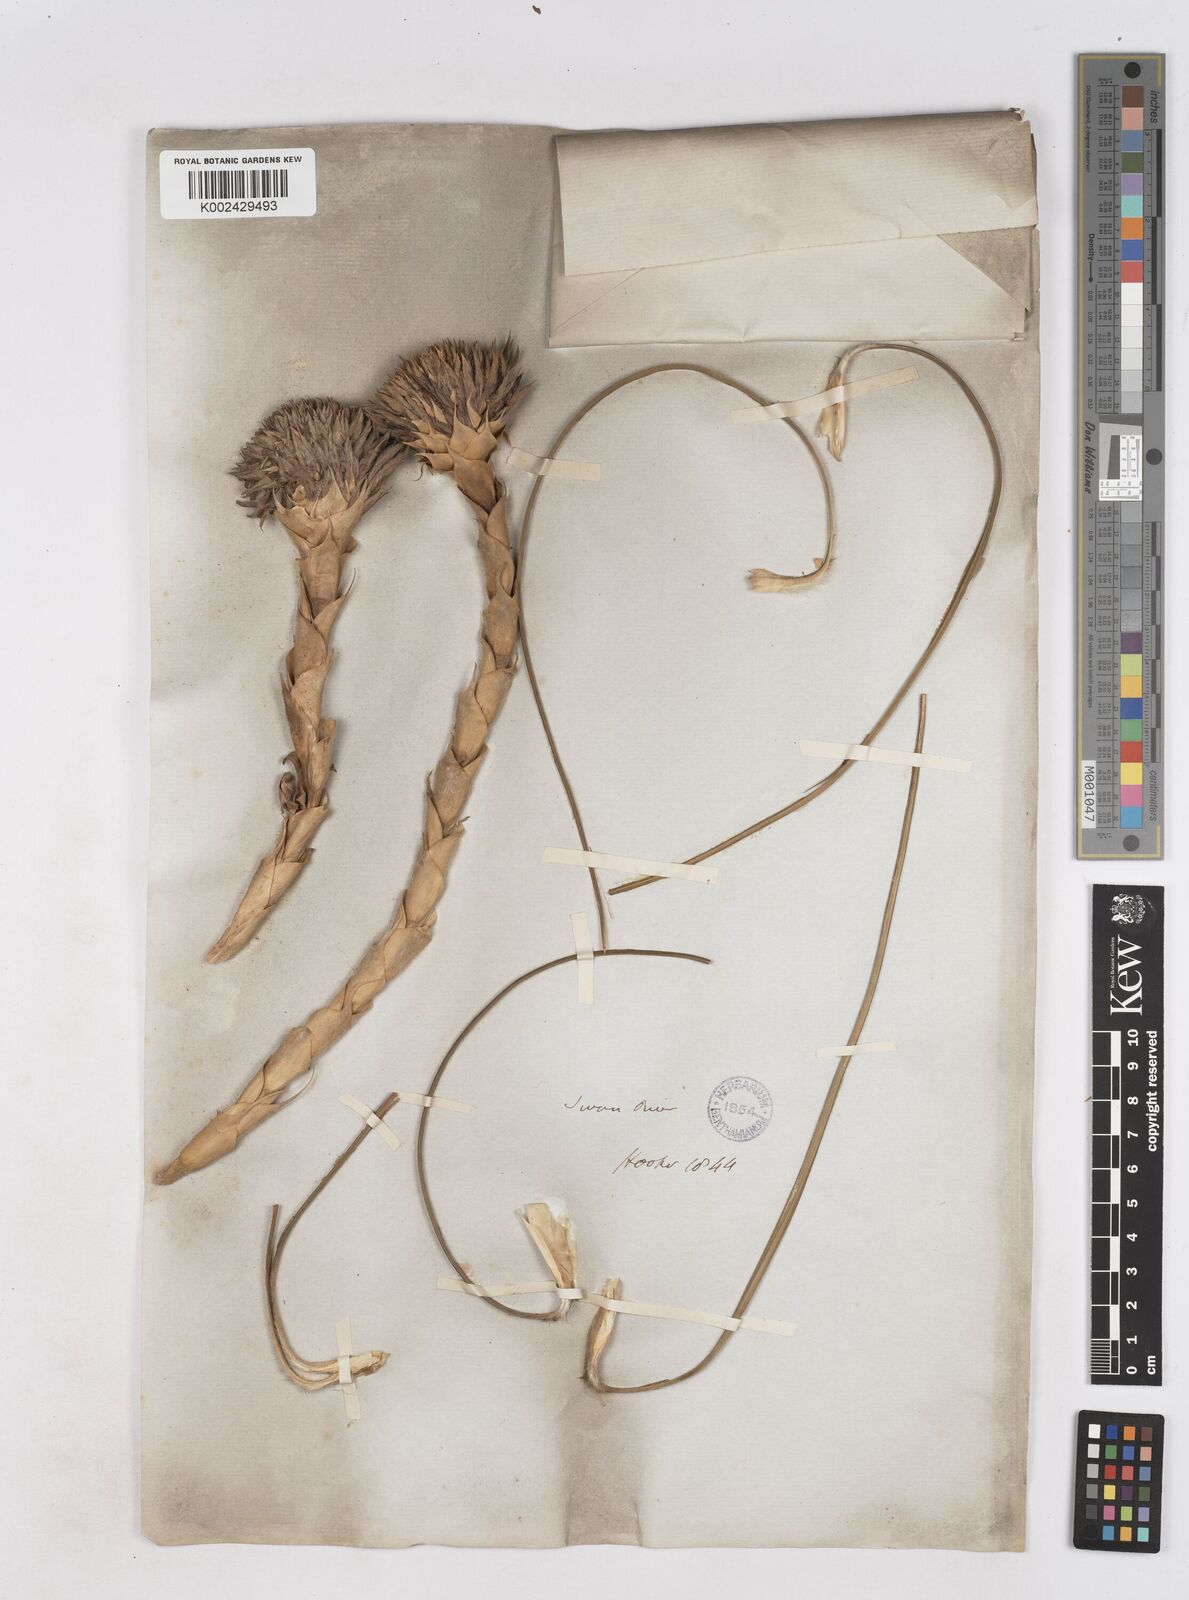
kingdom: Plantae
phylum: Tracheophyta
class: Liliopsida
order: Arecales
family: Dasypogonaceae
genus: Kingia
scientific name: Kingia australis
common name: Black gin
